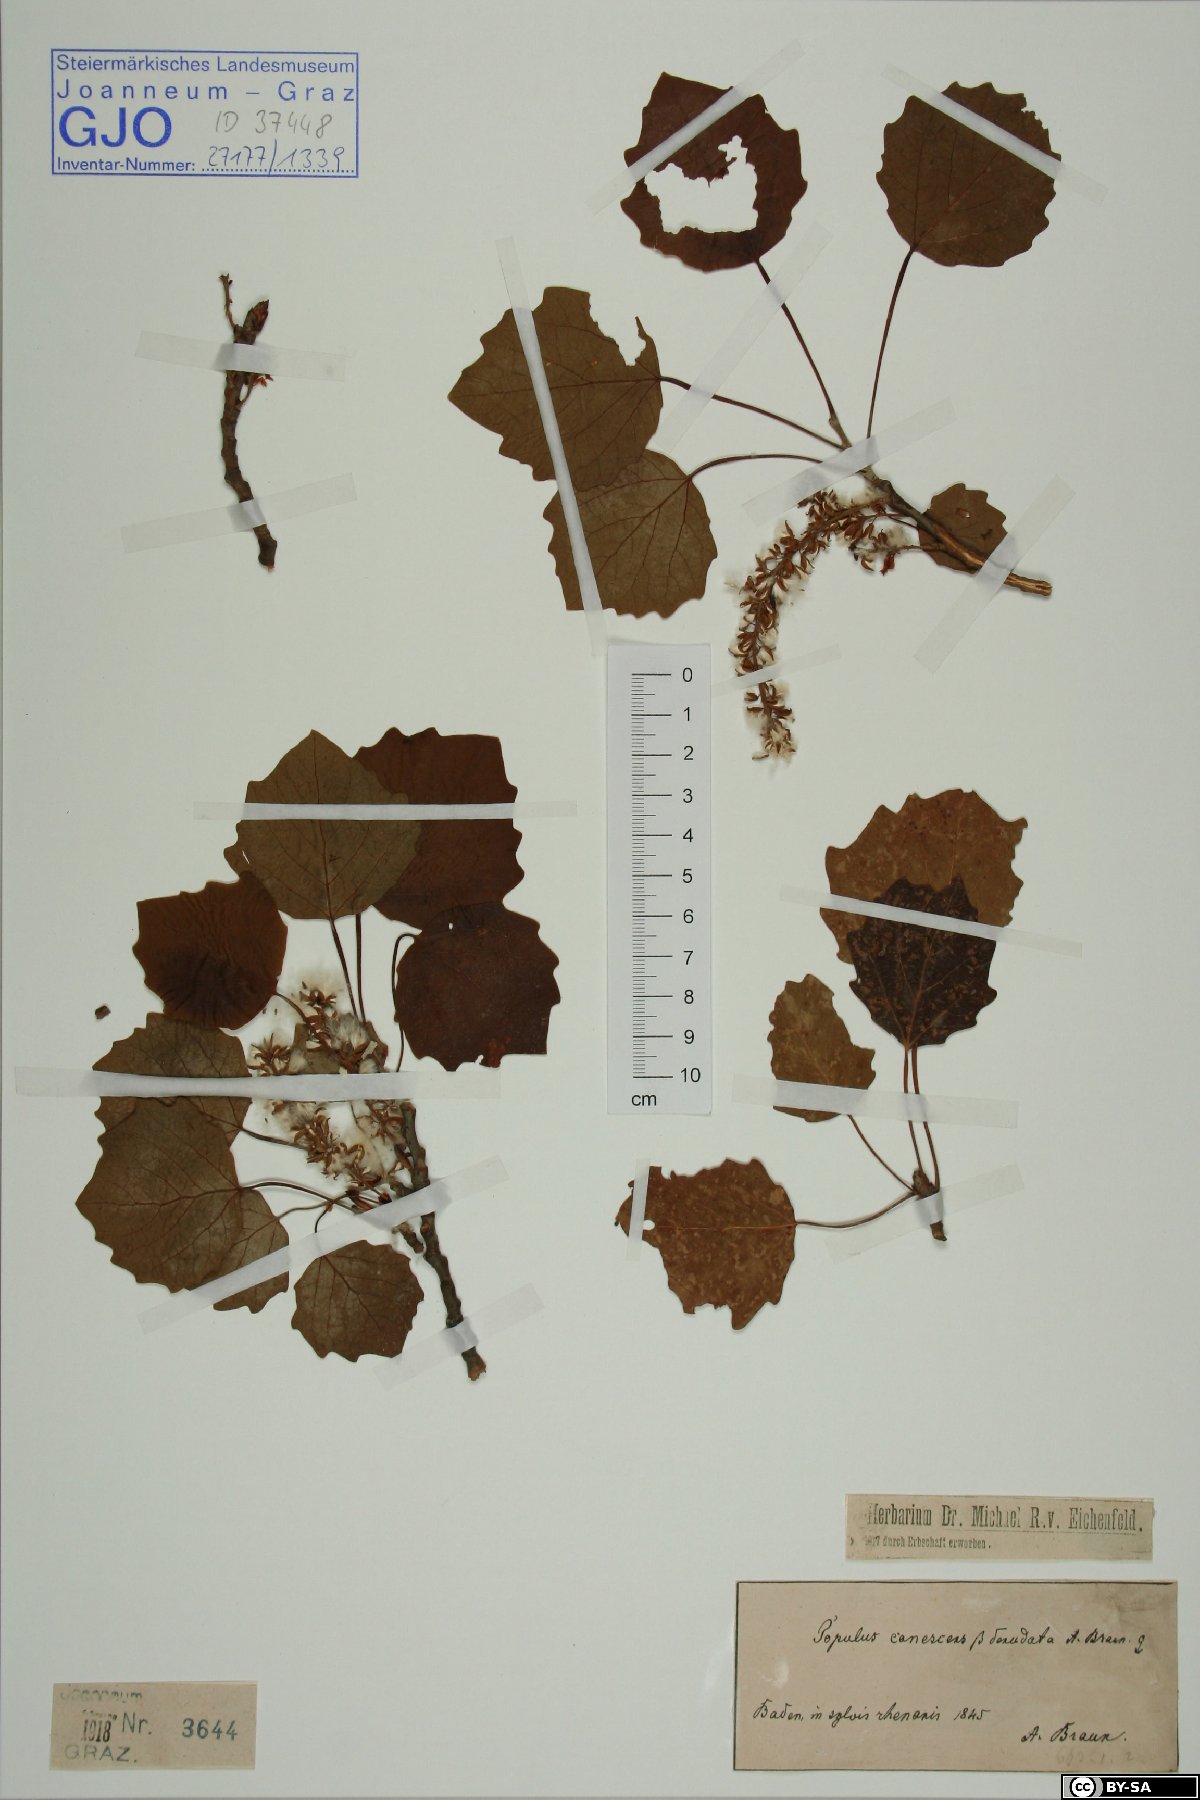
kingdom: Plantae
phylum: Tracheophyta
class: Magnoliopsida
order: Malpighiales
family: Salicaceae
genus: Populus
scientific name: Populus canescens
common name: Gray poplar
